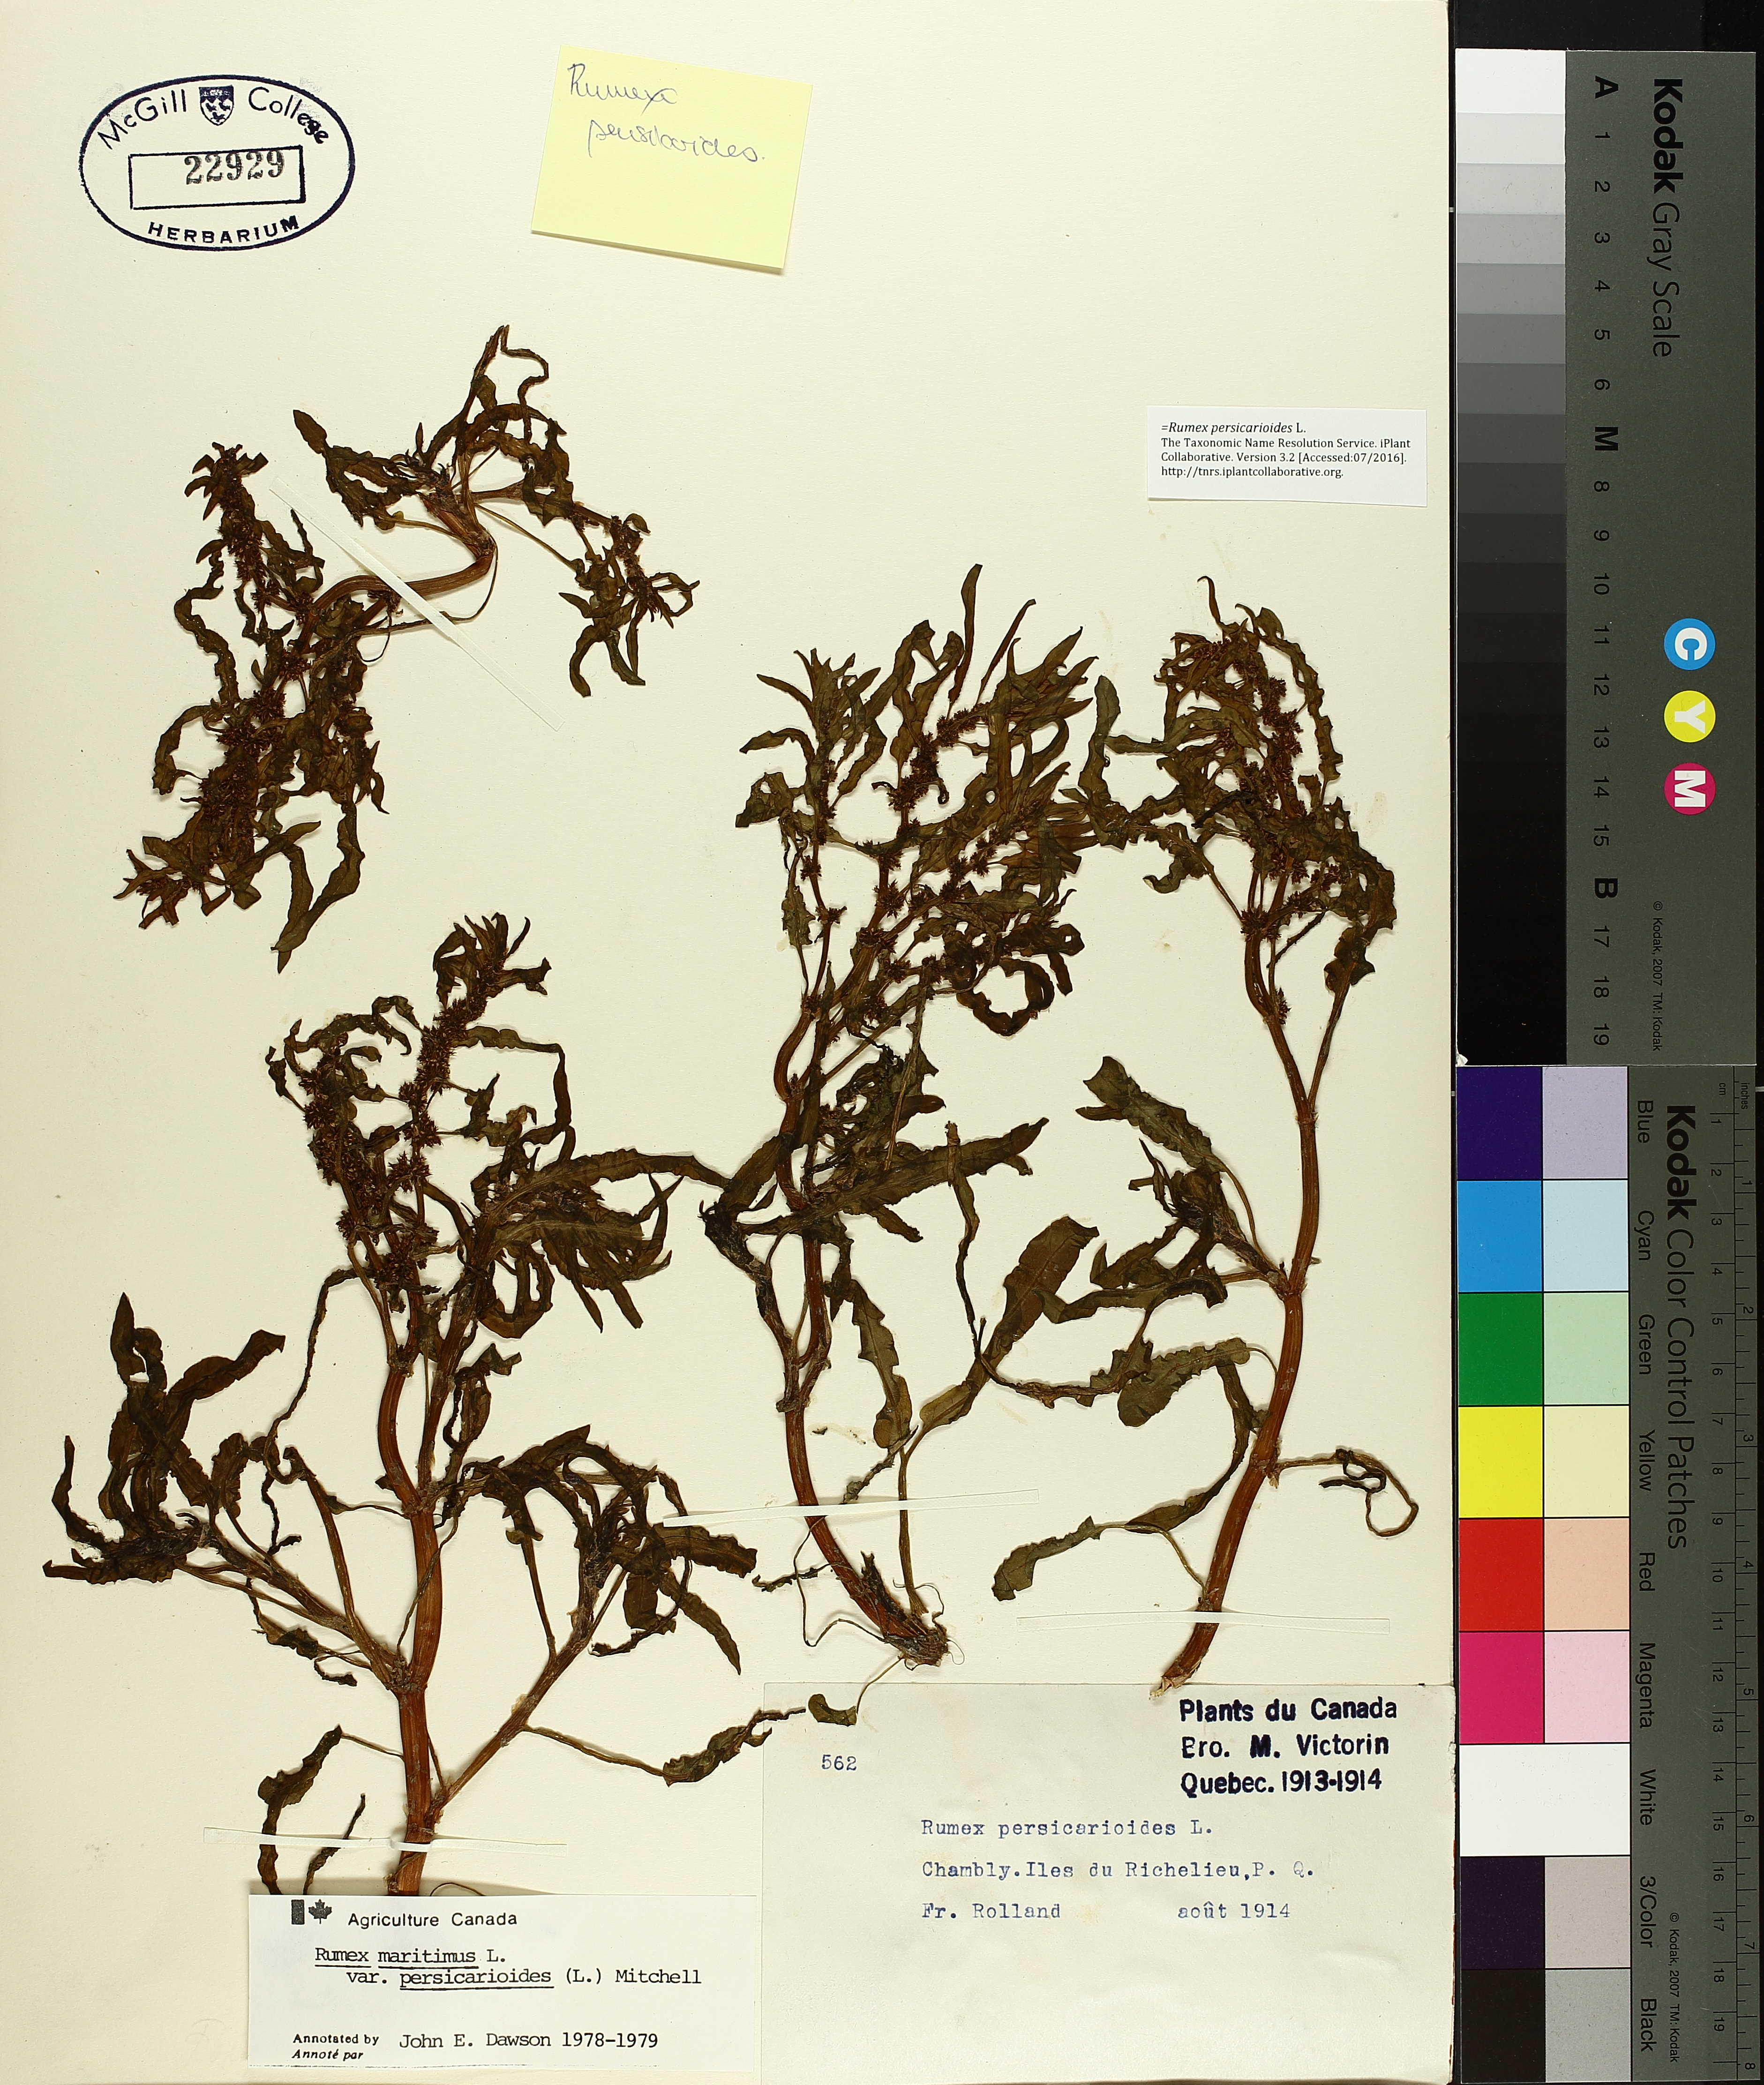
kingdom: Plantae
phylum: Tracheophyta
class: Magnoliopsida
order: Caryophyllales
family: Polygonaceae
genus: Rumex
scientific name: Rumex persicarioides
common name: Peach-leaved dock
